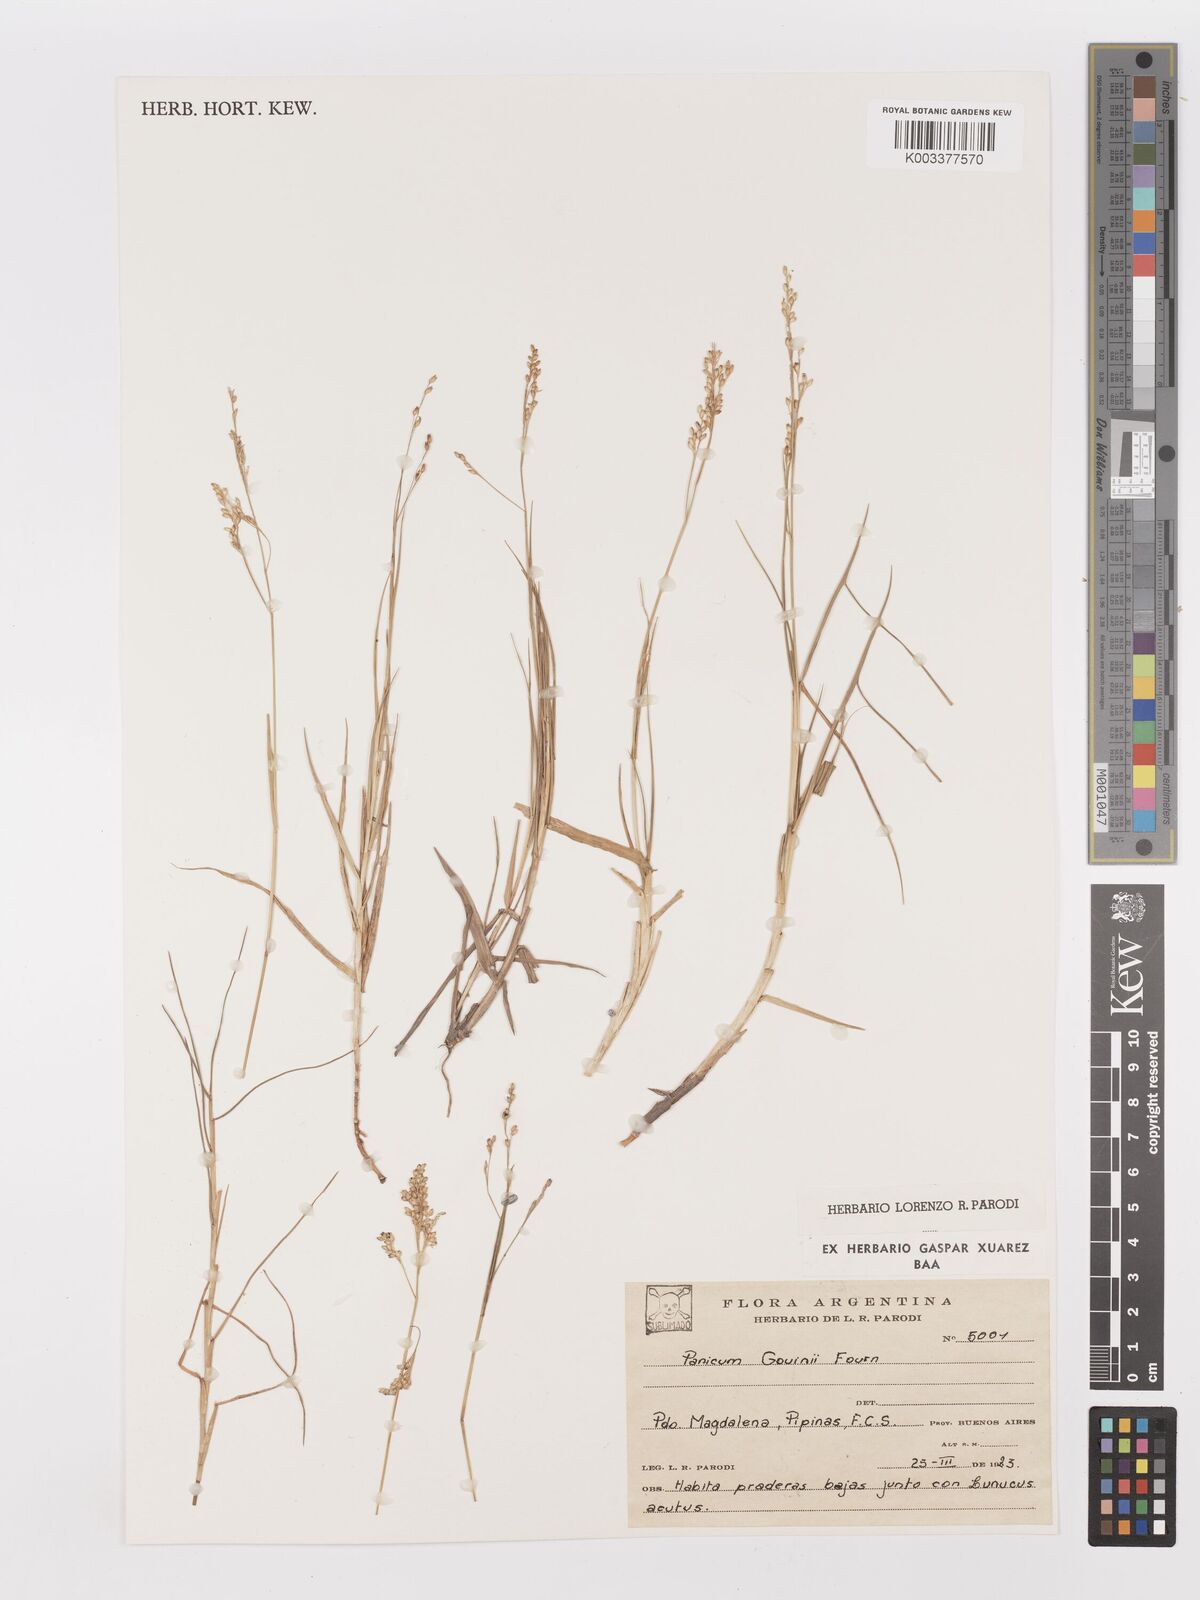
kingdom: Plantae
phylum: Tracheophyta
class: Liliopsida
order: Poales
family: Poaceae
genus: Urochloa
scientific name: Urochloa rudis
